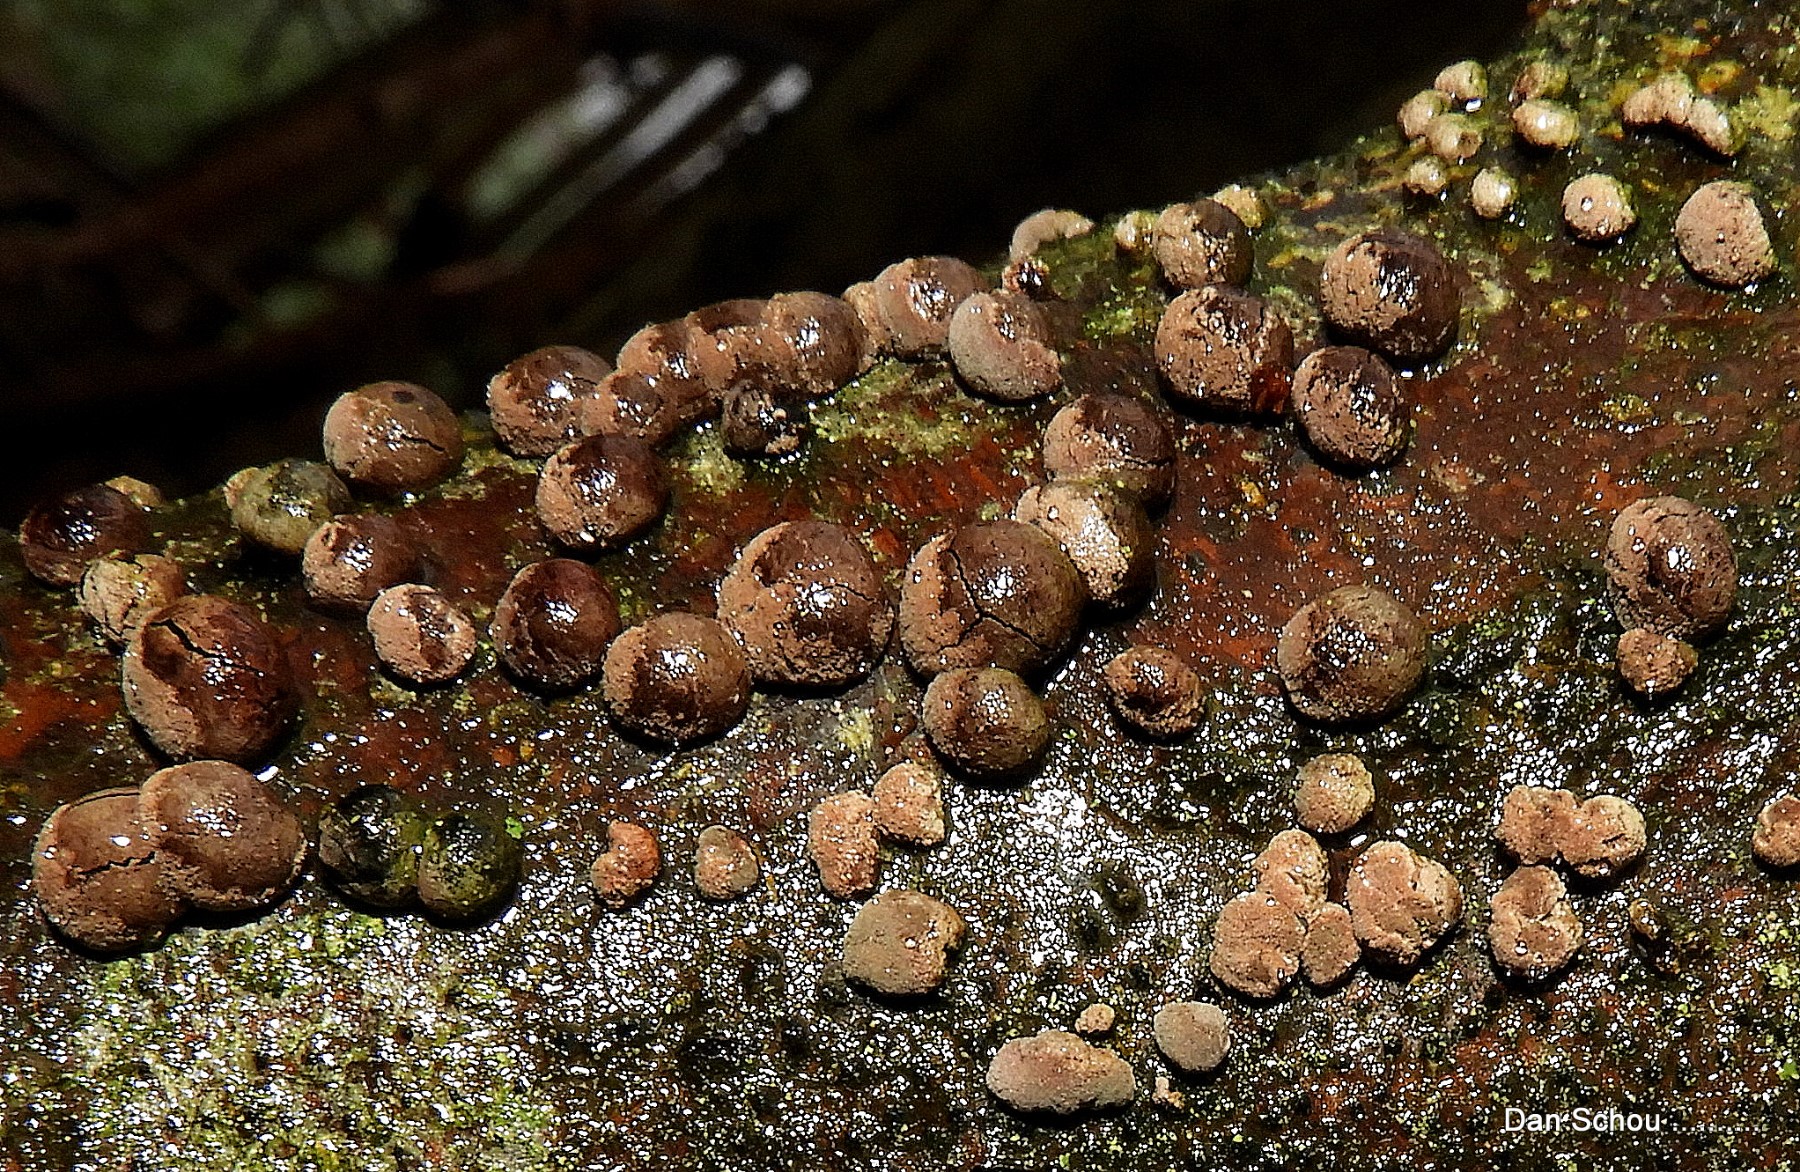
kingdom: Fungi
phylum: Ascomycota
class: Sordariomycetes
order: Xylariales
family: Hypoxylaceae
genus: Hypoxylon
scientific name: Hypoxylon
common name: kulbær
